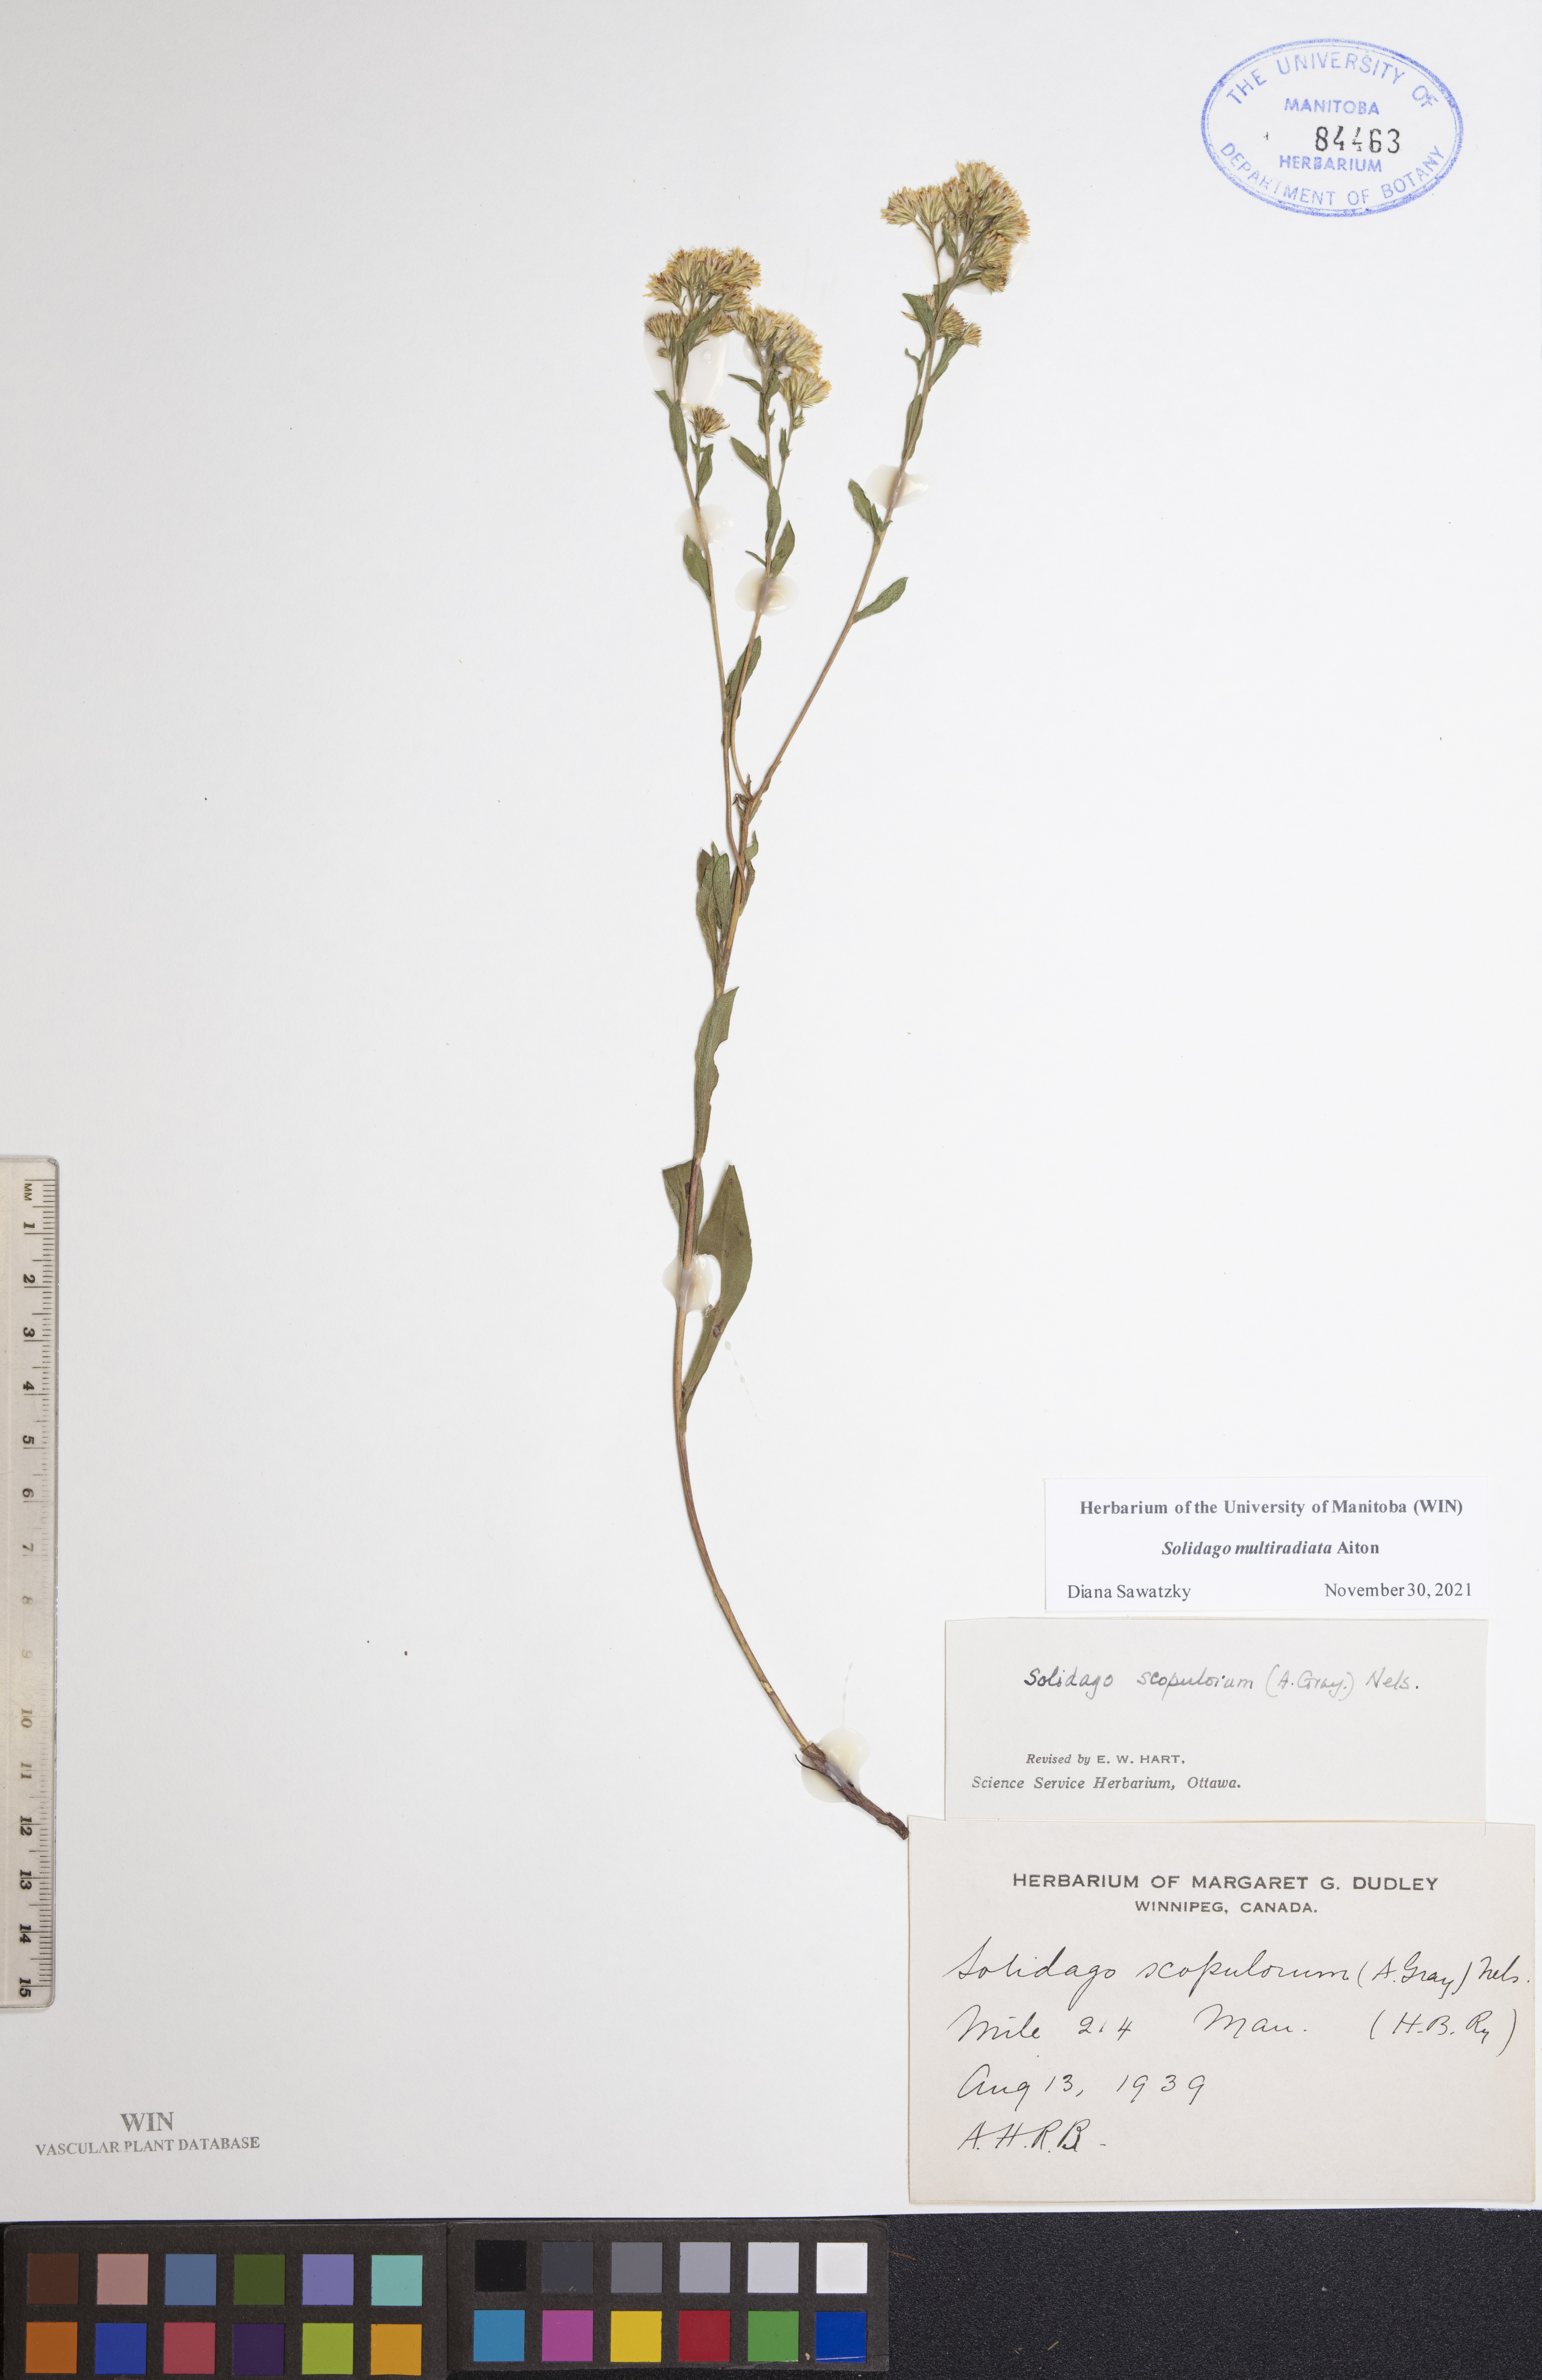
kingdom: Plantae
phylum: Tracheophyta
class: Magnoliopsida
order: Asterales
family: Asteraceae
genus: Solidago
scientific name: Solidago multiradiata
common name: Northern goldenrod
